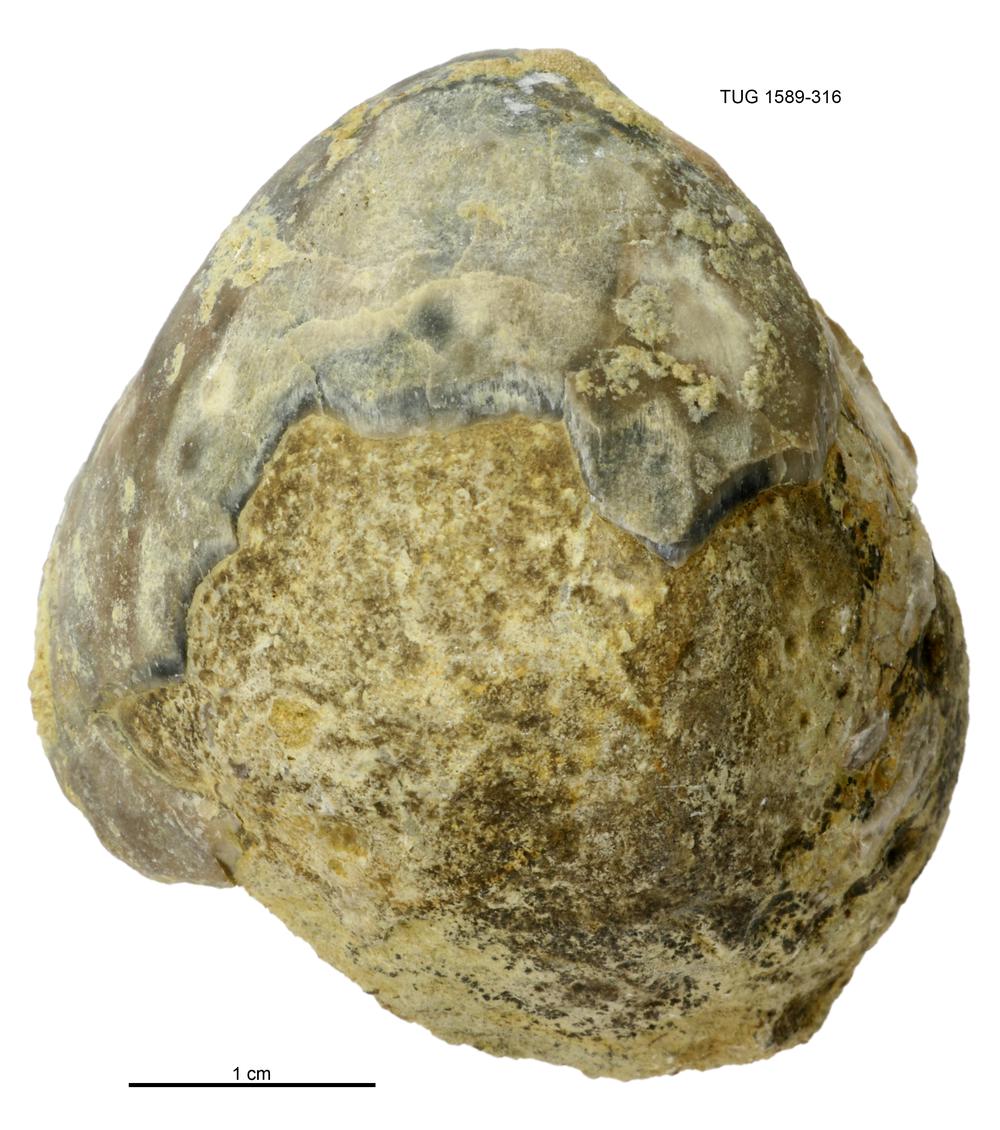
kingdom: Animalia
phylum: Brachiopoda
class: Rhynchonellata
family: Porambonitidae
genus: Porambonites
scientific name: Porambonites
